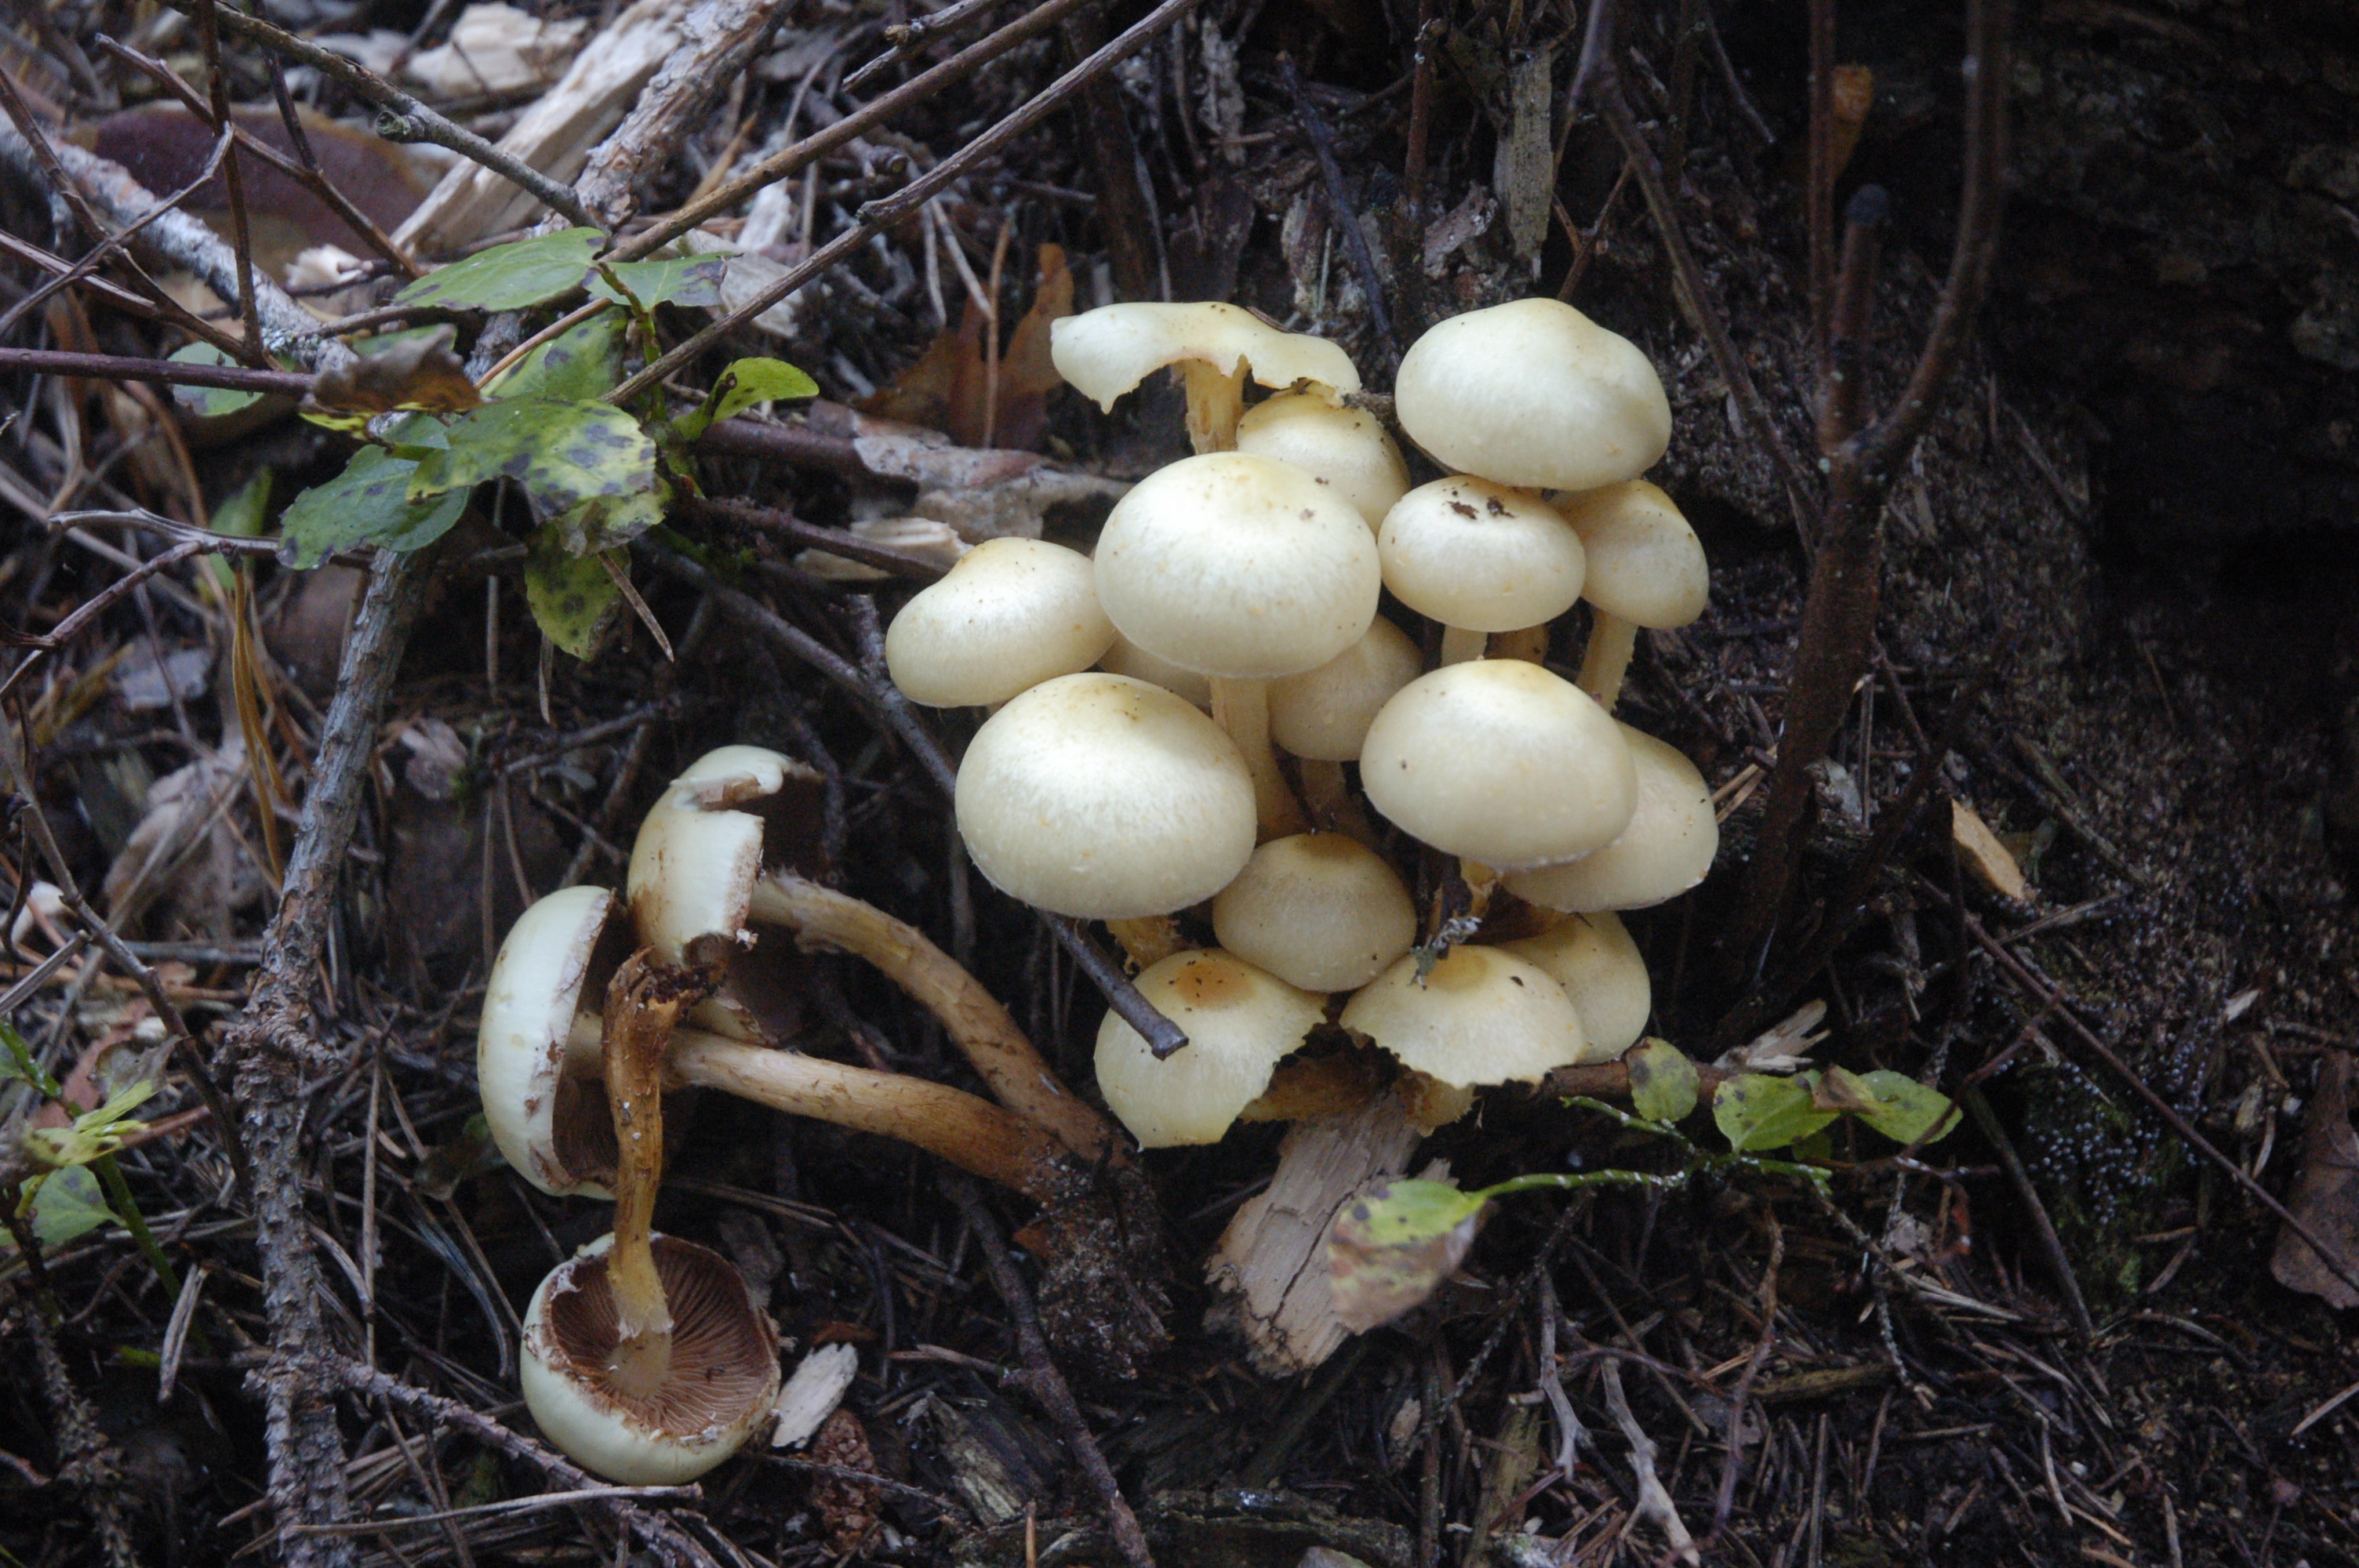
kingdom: Fungi
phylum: Basidiomycota
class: Agaricomycetes
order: Agaricales
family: Hymenogastraceae
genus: Flammula
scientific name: Flammula alnicola
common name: Alder scalycap
